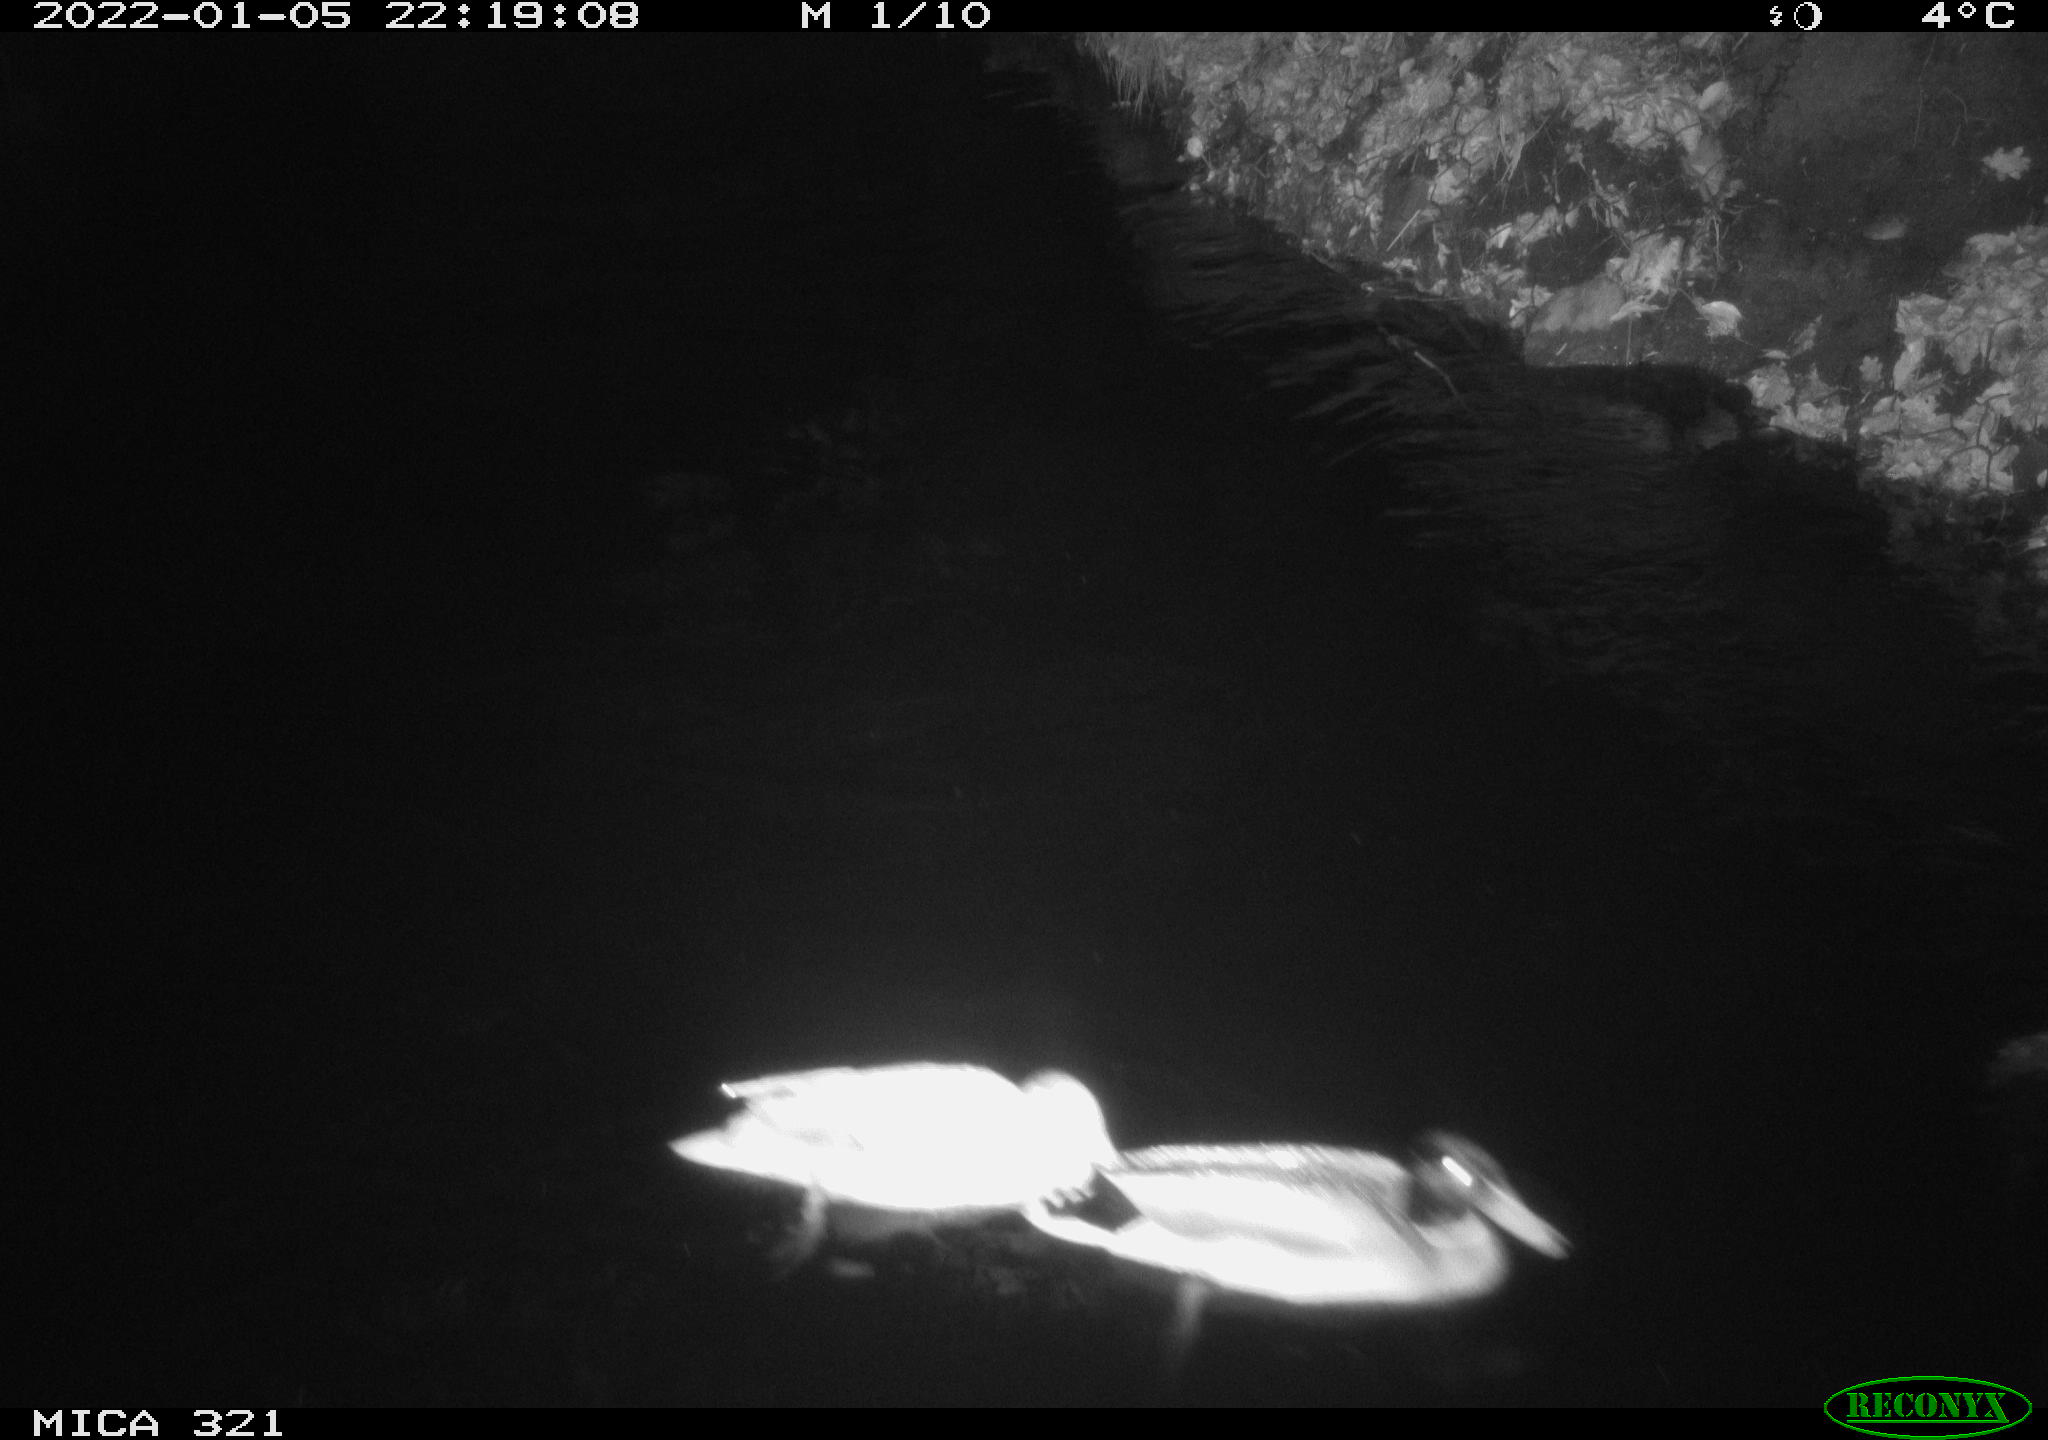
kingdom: Animalia
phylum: Chordata
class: Aves
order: Anseriformes
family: Anatidae
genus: Anas
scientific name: Anas platyrhynchos
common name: Mallard
